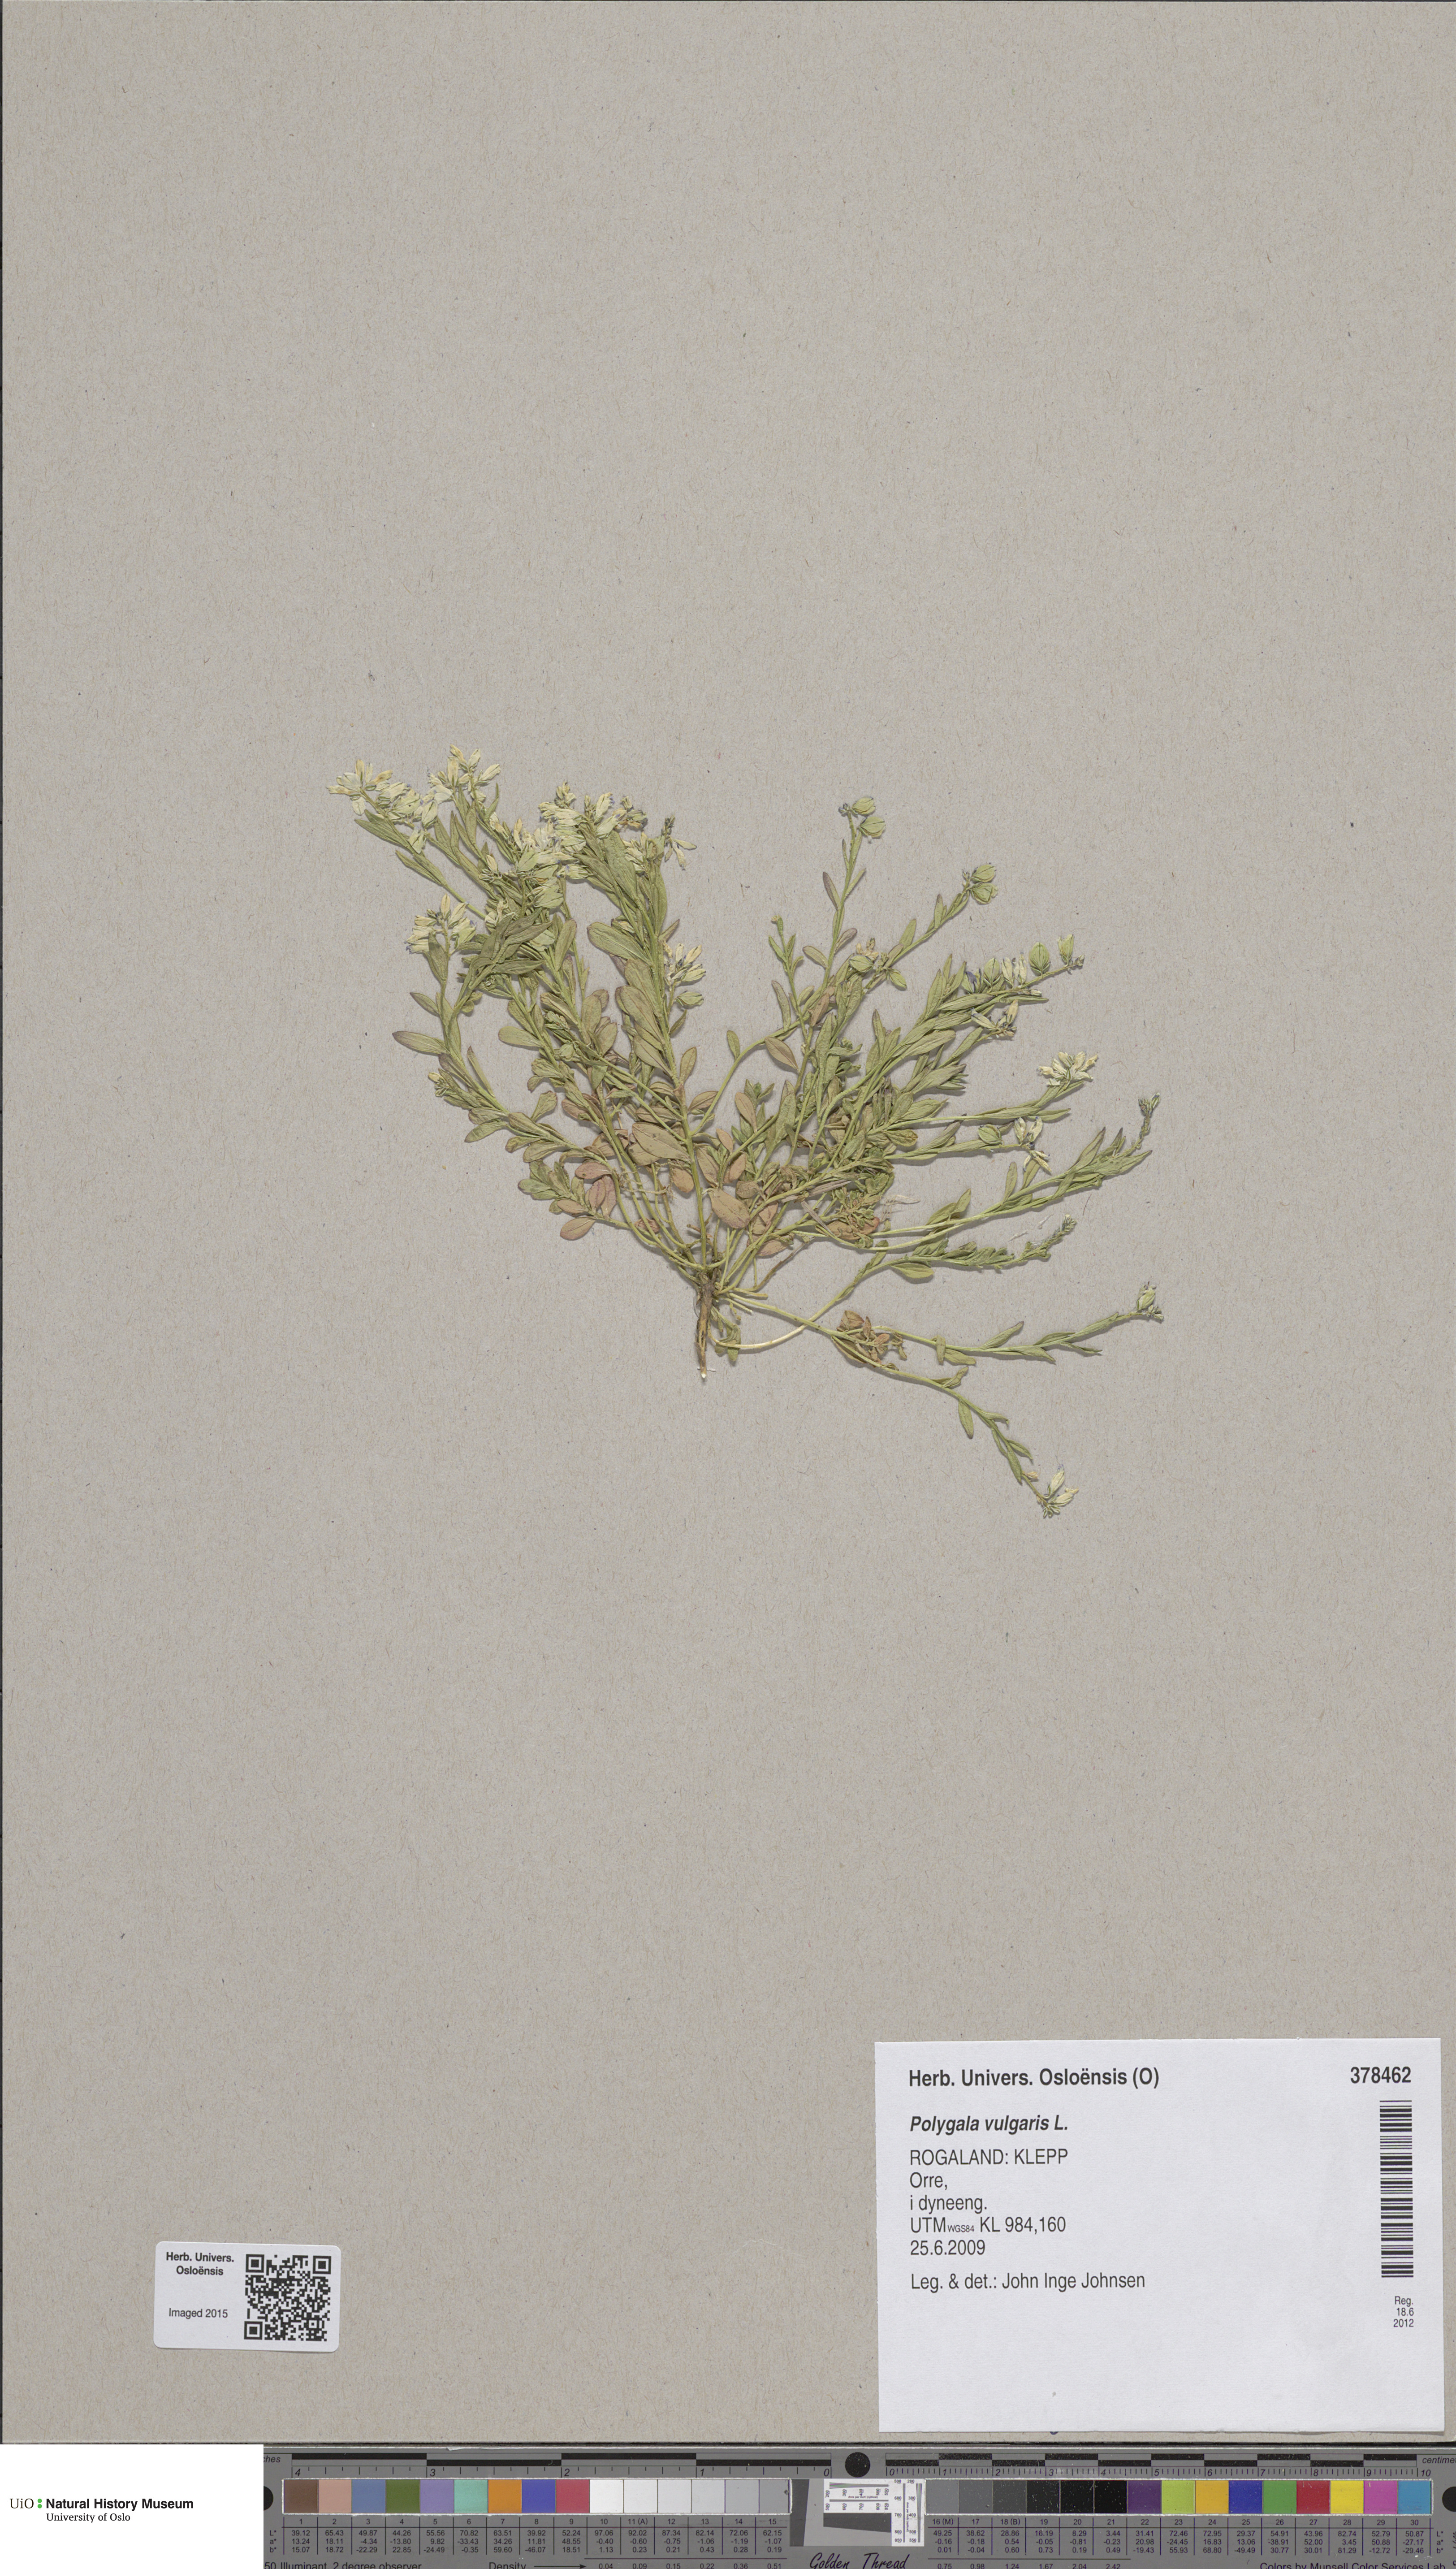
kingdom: Plantae
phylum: Tracheophyta
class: Magnoliopsida
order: Fabales
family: Polygalaceae
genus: Polygala
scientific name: Polygala vulgaris
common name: Common milkwort
